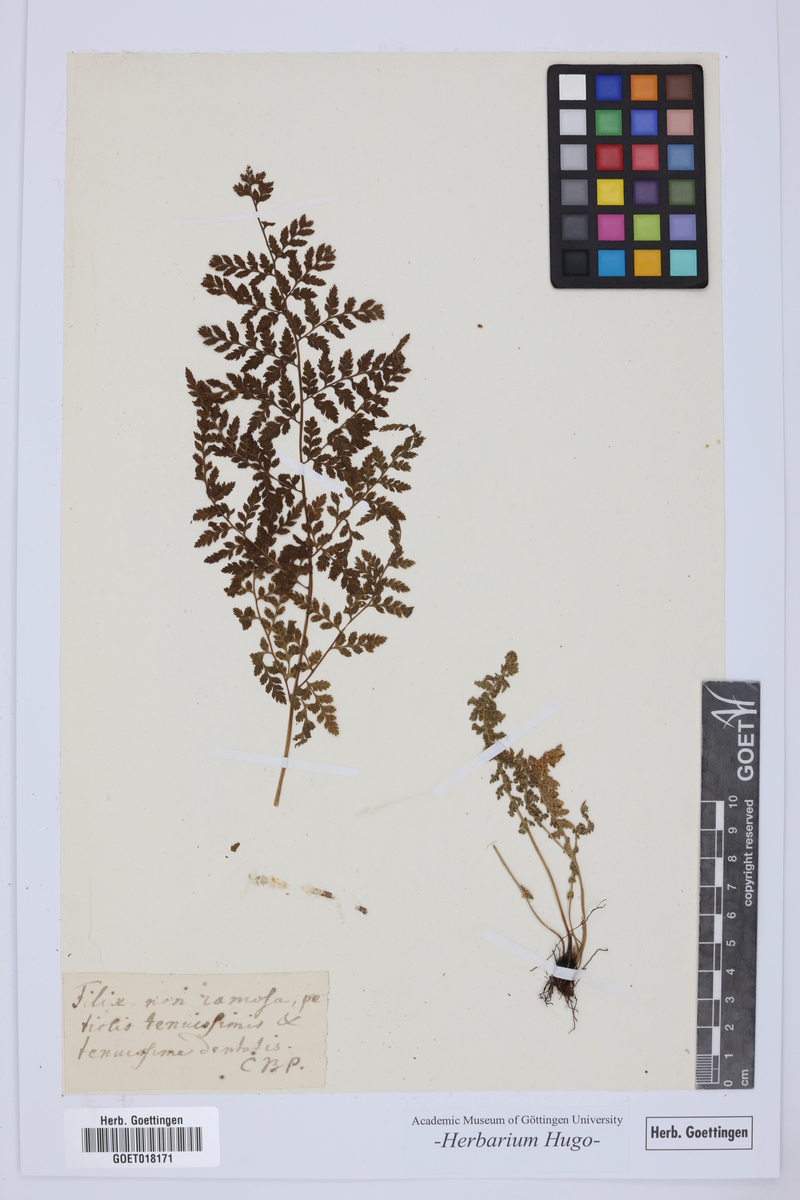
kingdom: Plantae
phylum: Tracheophyta
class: Polypodiopsida
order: Polypodiales
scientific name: Polypodiales
